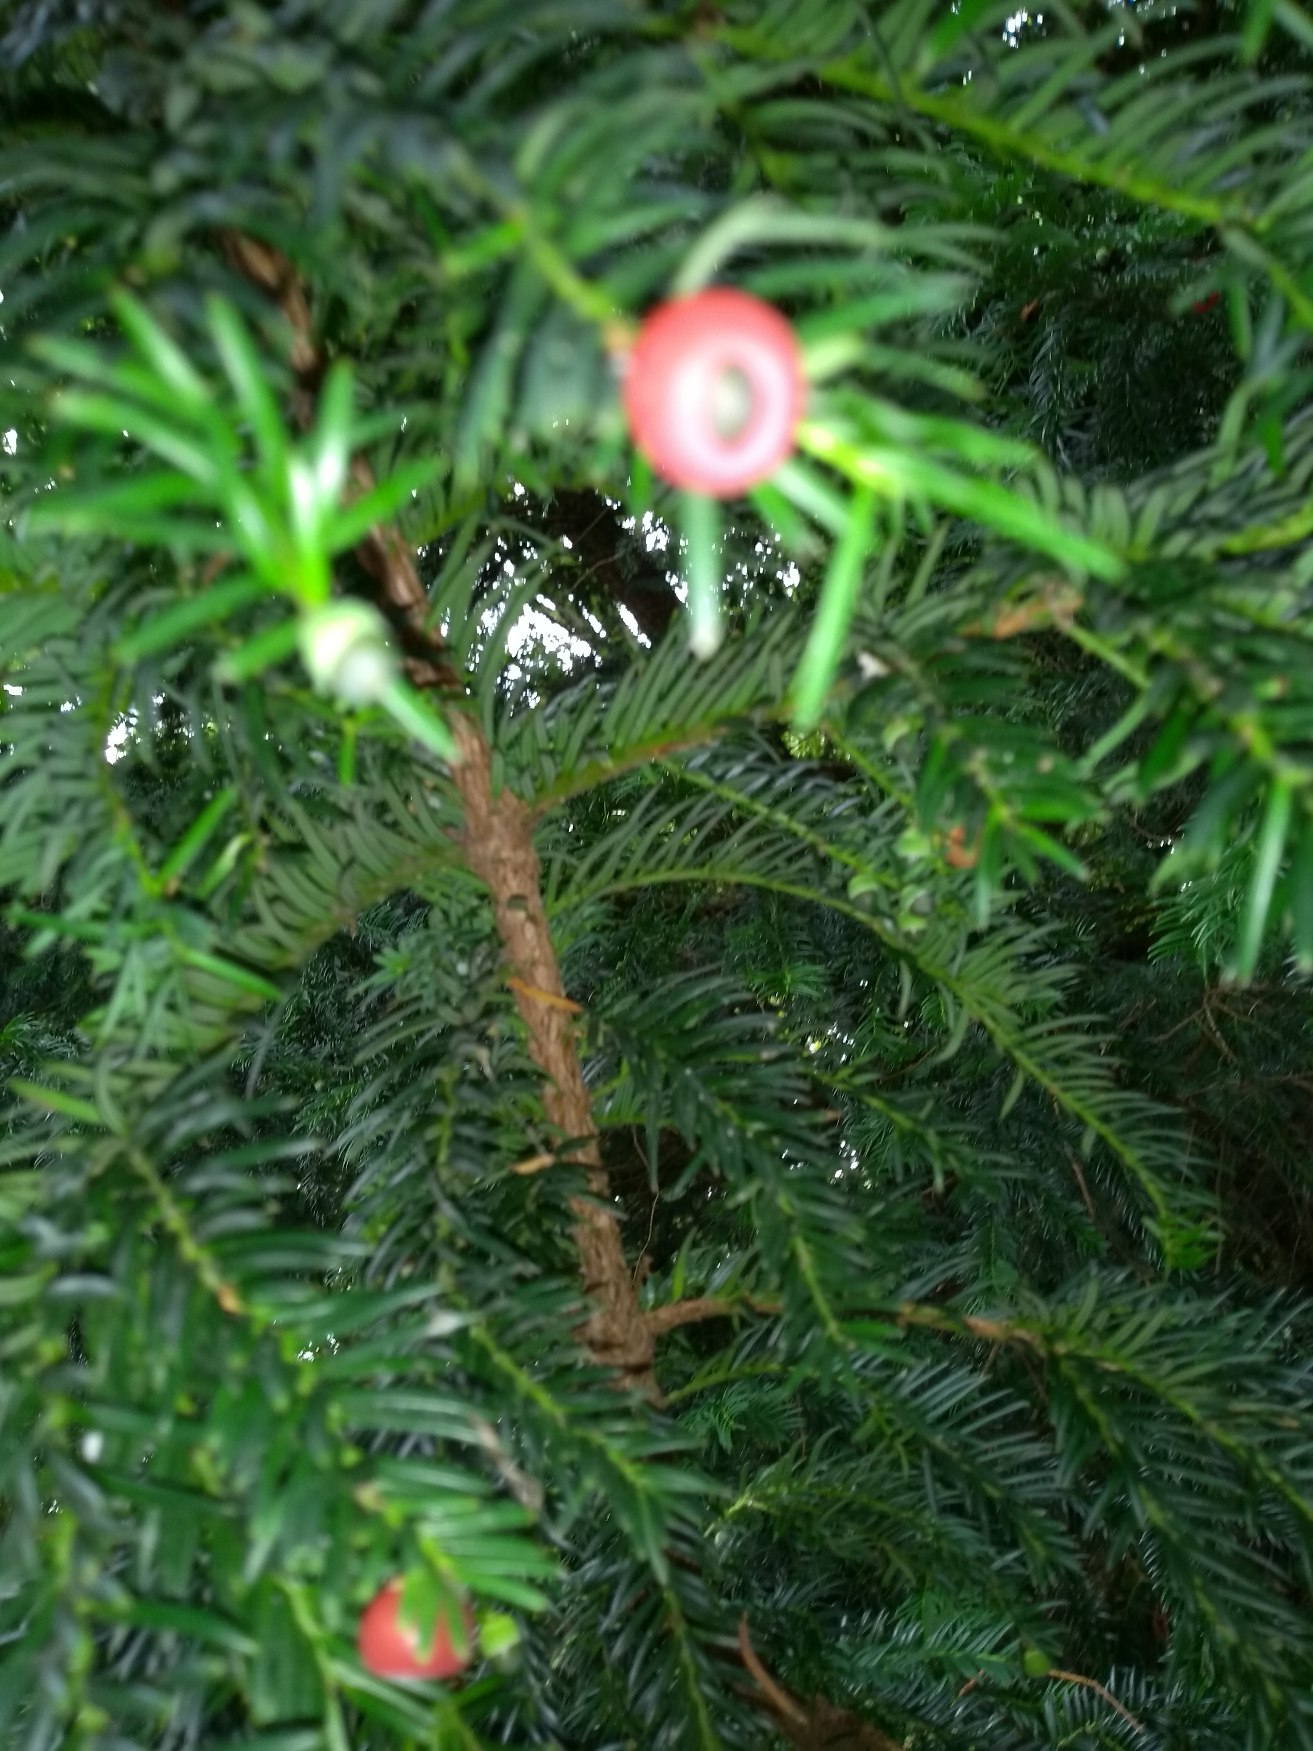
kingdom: Plantae
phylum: Tracheophyta
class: Pinopsida
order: Pinales
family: Taxaceae
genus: Taxus
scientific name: Taxus baccata
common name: Almindelig taks
